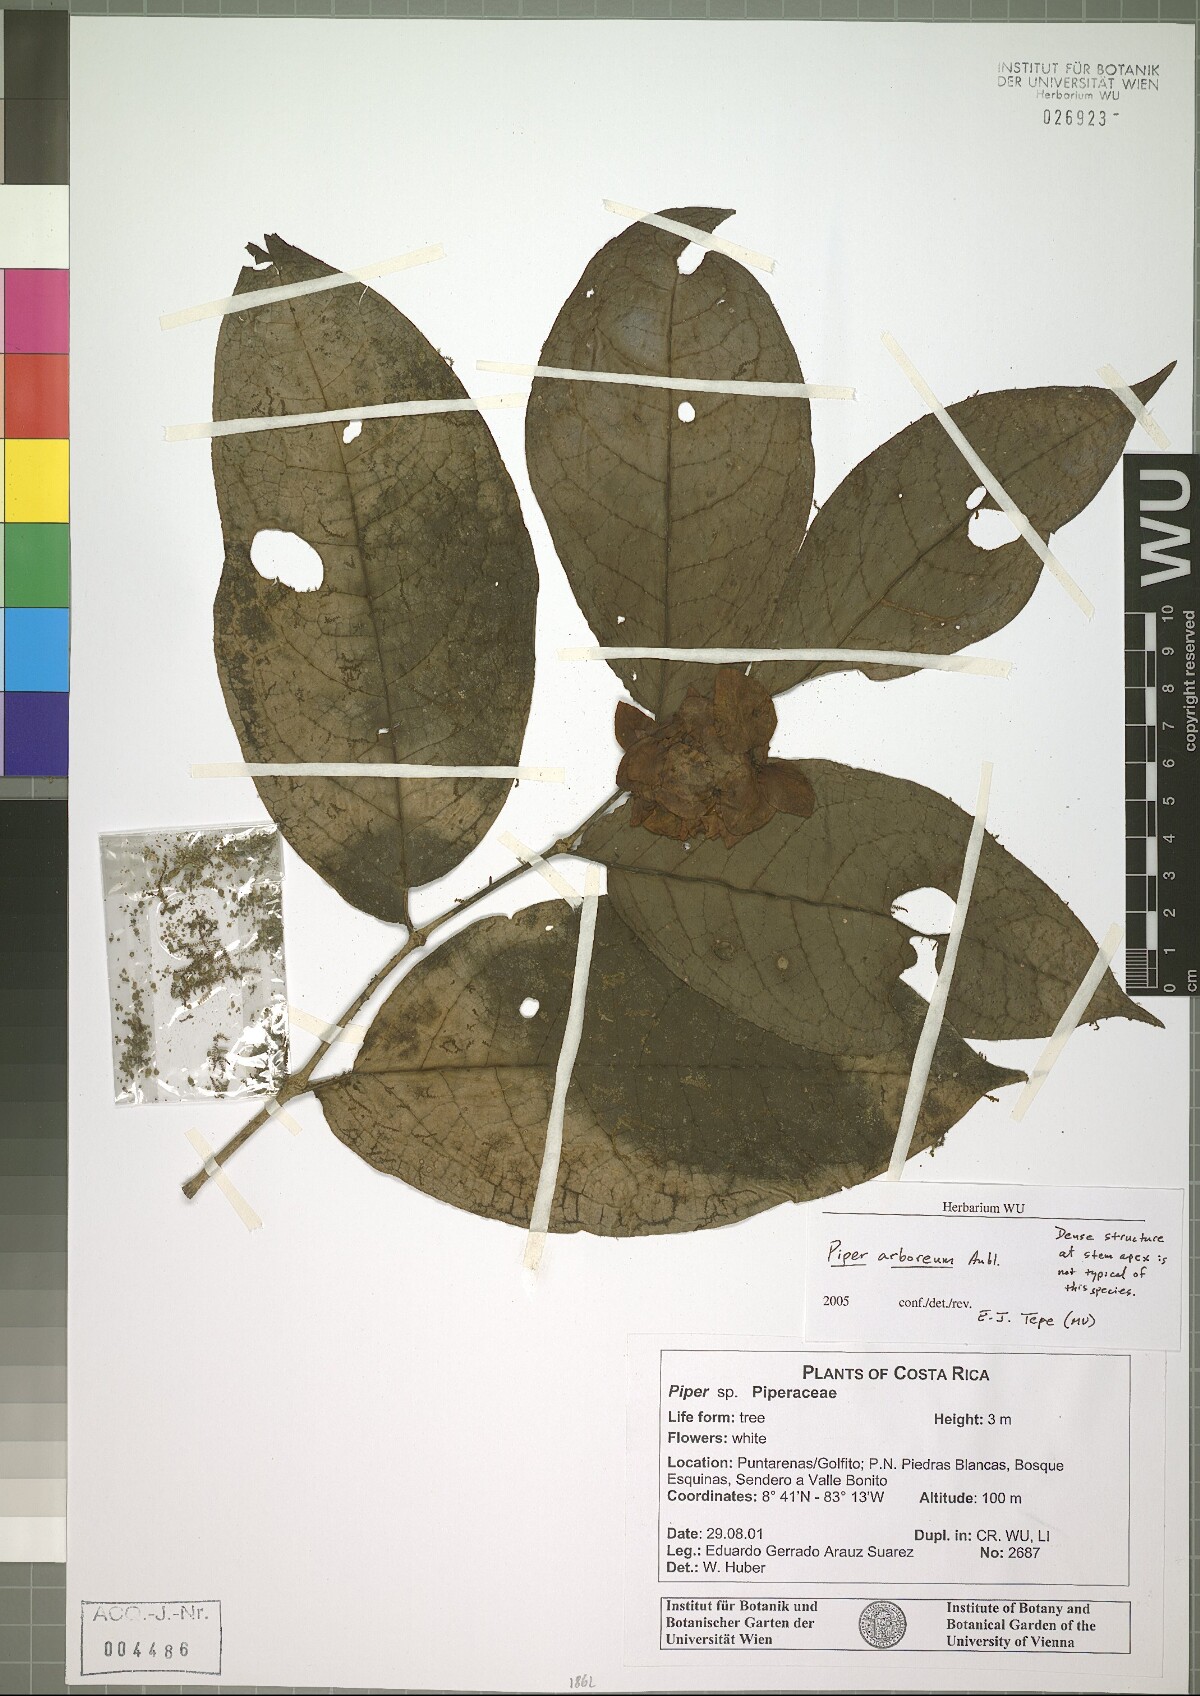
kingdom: Plantae
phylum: Tracheophyta
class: Magnoliopsida
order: Piperales
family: Piperaceae
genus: Piper
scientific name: Piper arboreum
